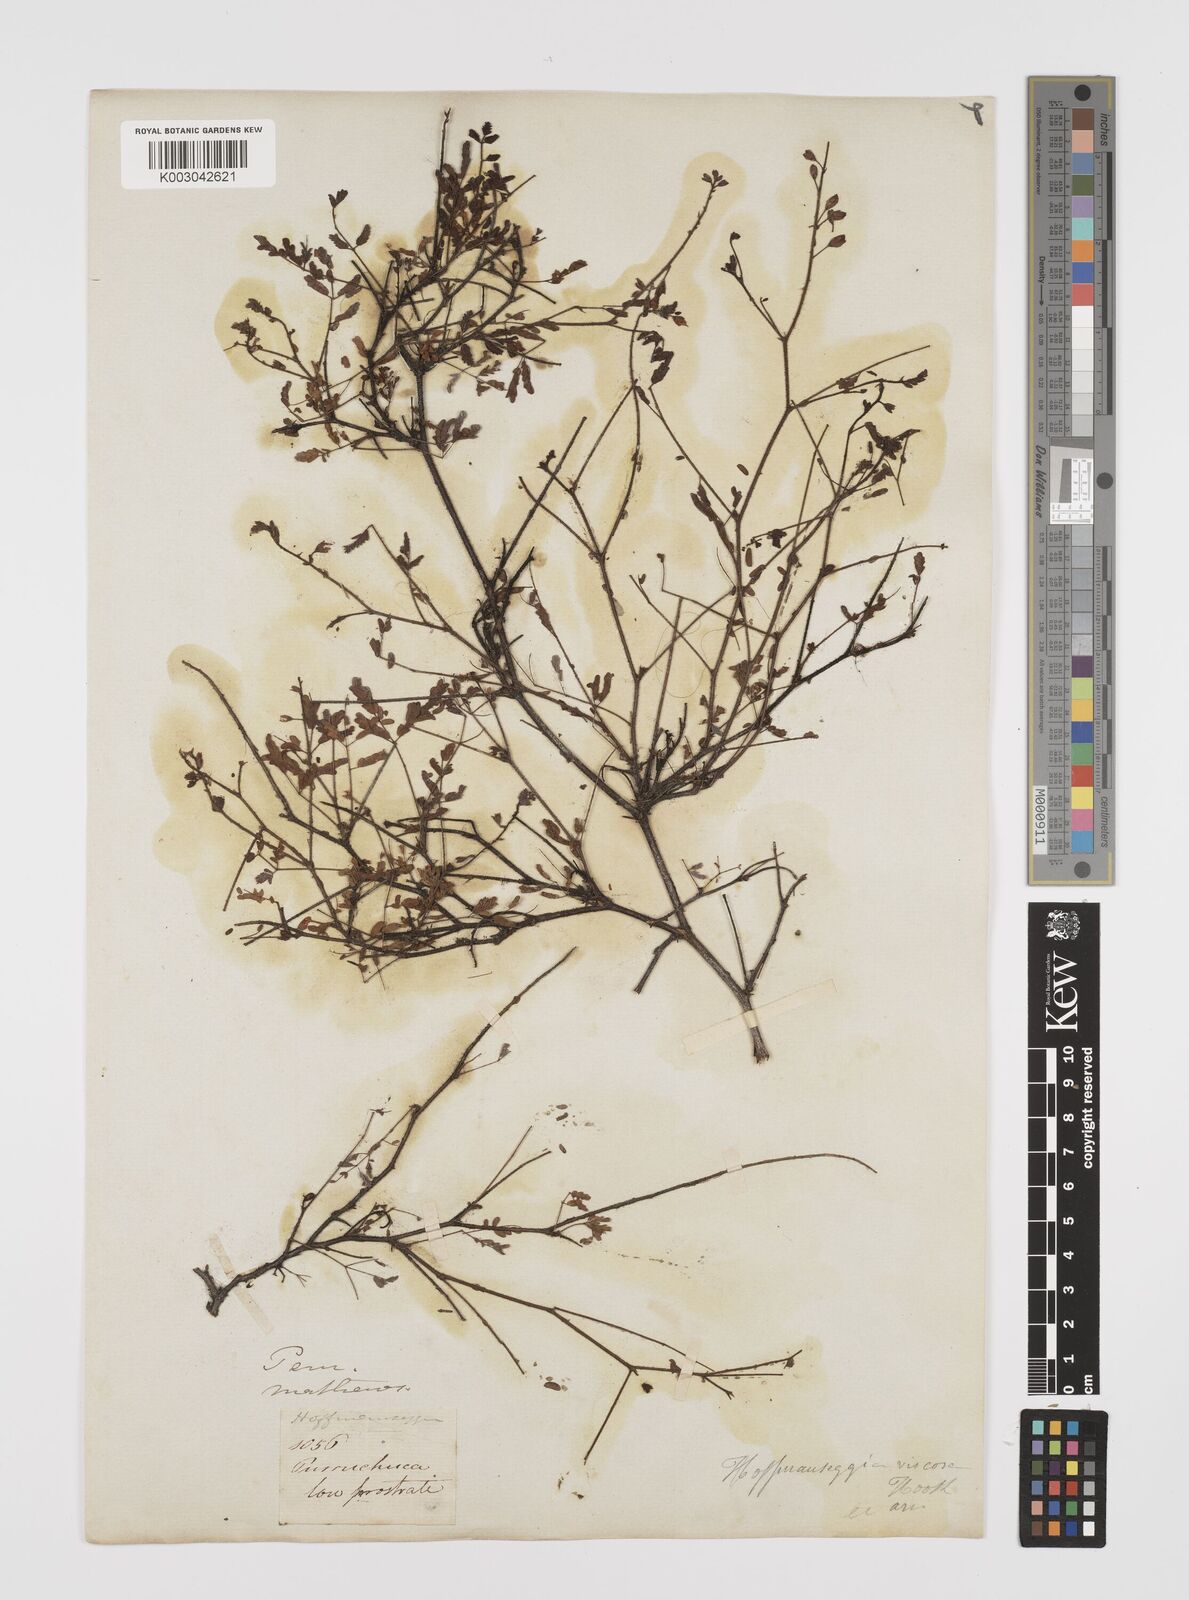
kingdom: Plantae
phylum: Tracheophyta
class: Magnoliopsida
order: Fabales
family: Fabaceae
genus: Hoffmannseggia
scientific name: Hoffmannseggia viscosa
